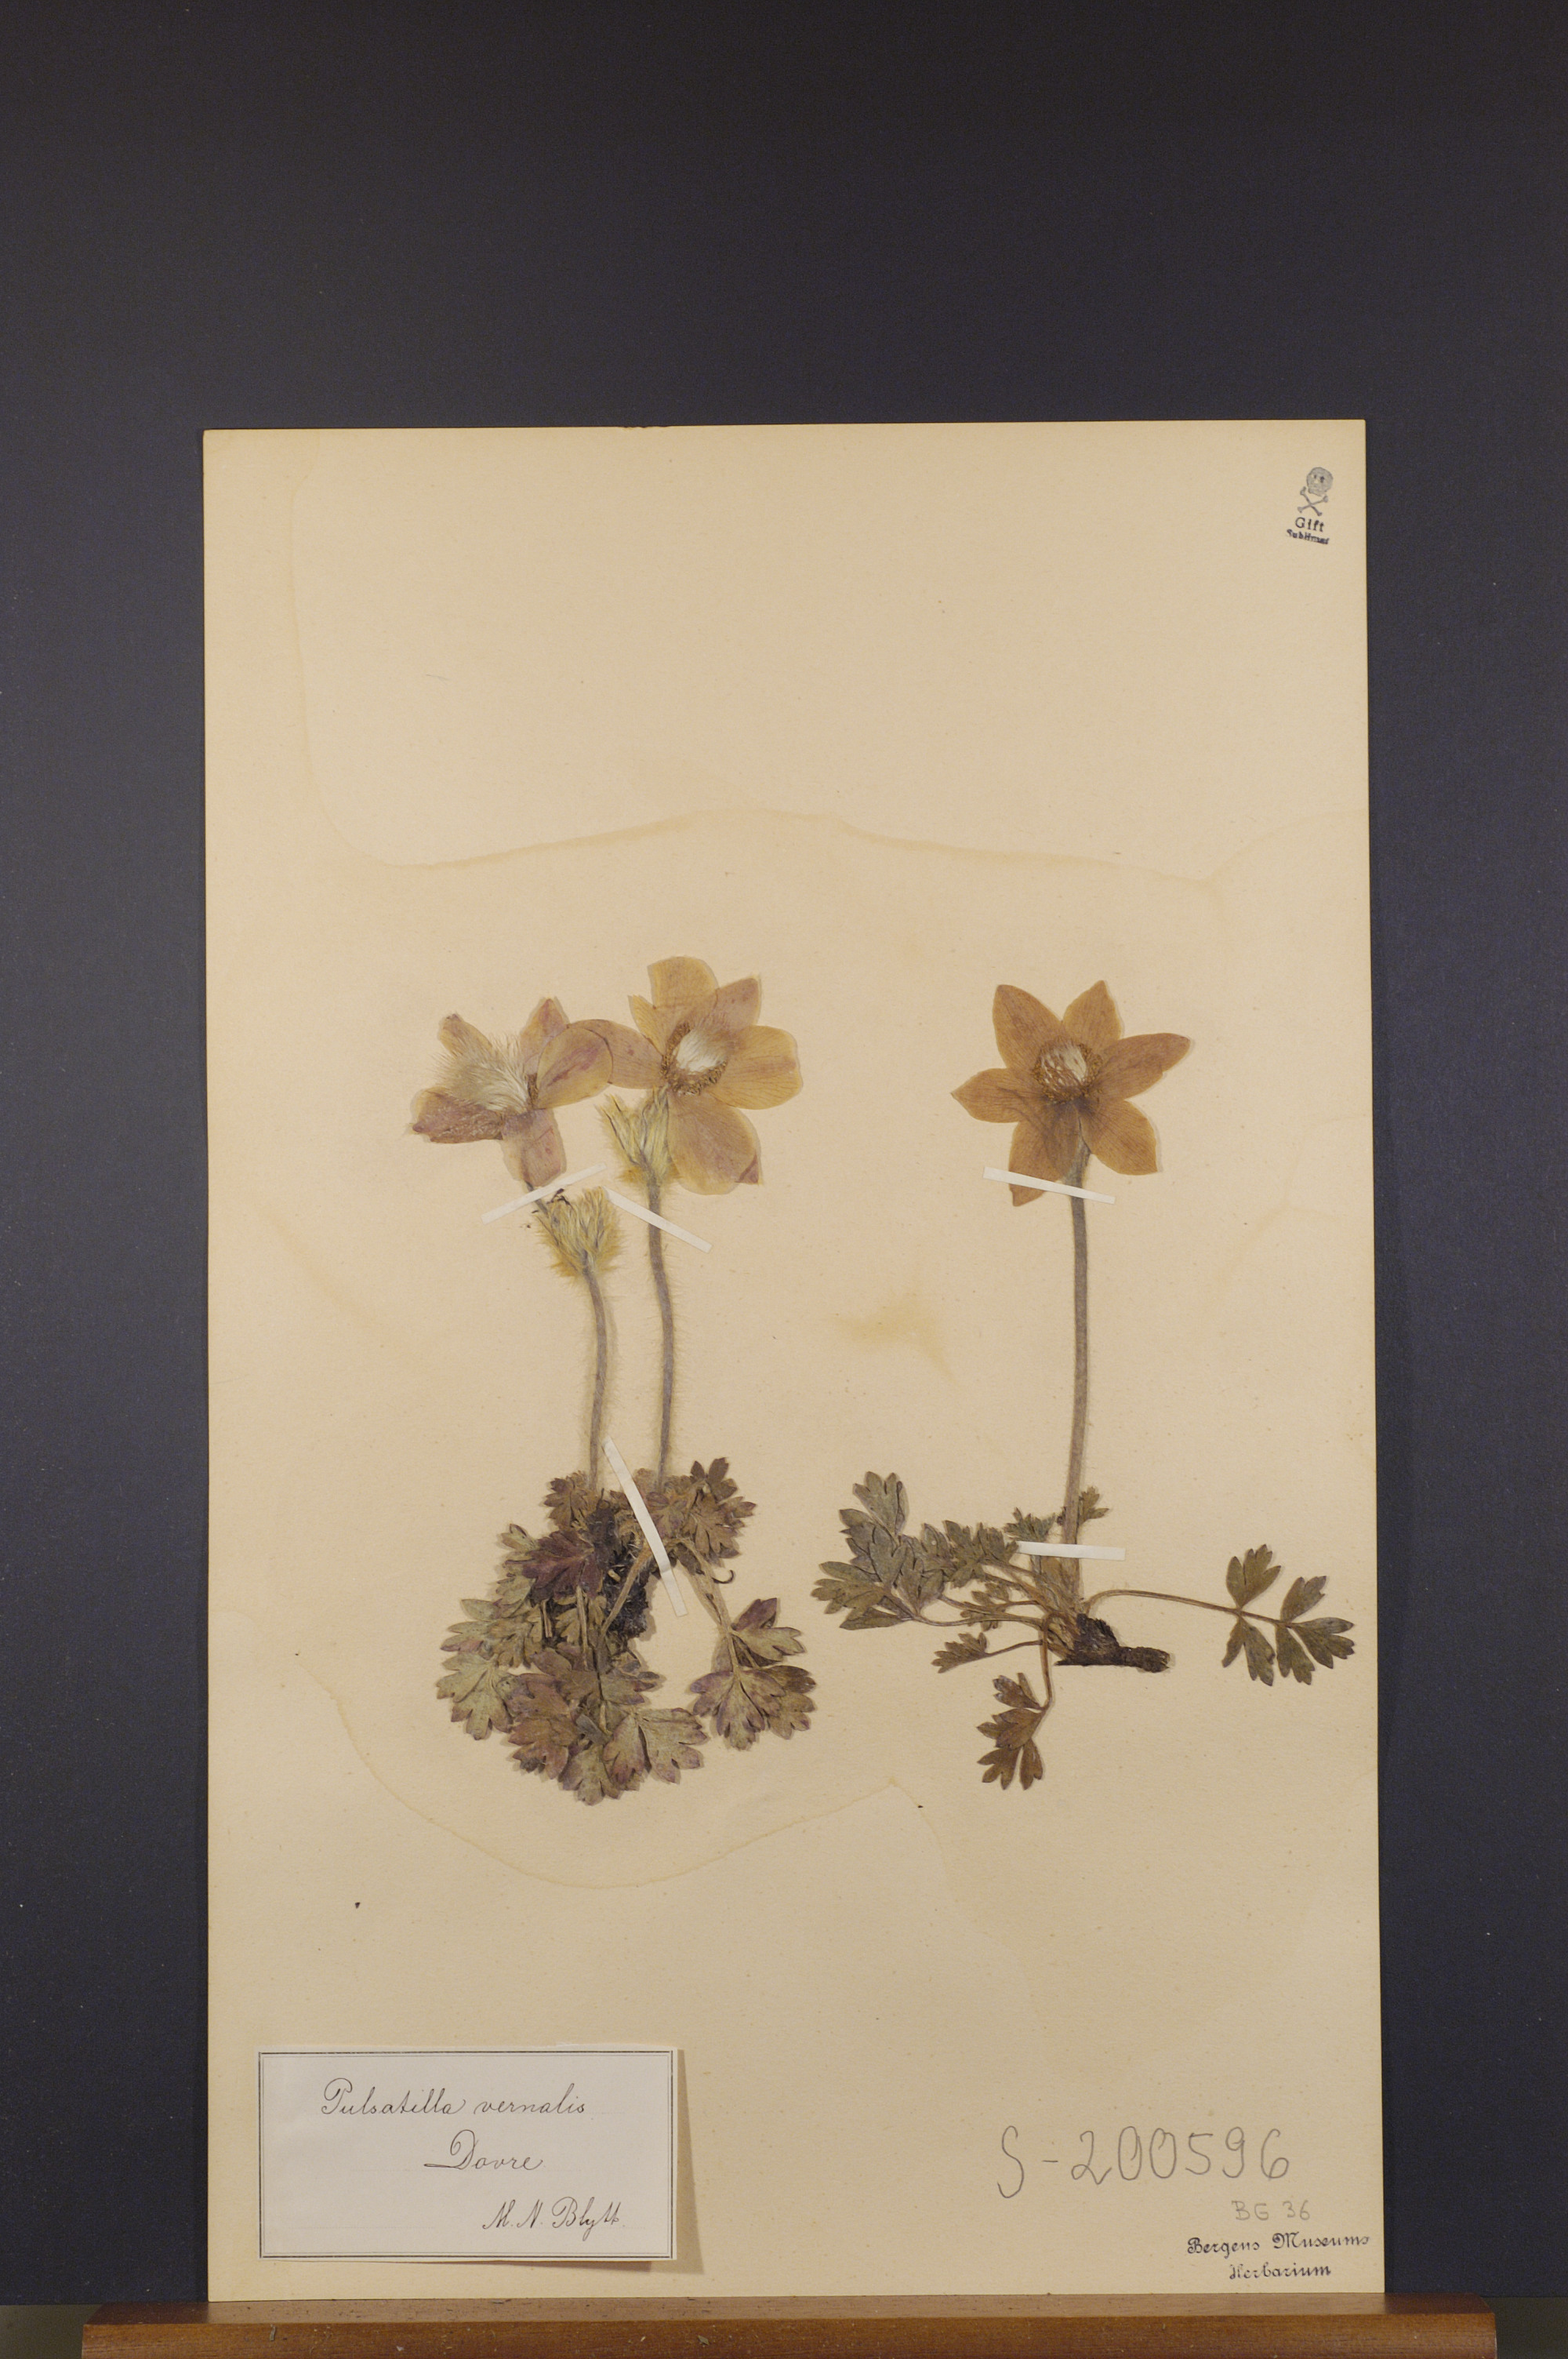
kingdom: Plantae
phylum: Tracheophyta
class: Magnoliopsida
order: Ranunculales
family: Ranunculaceae
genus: Pulsatilla
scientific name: Pulsatilla vernalis
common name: Spring pasque flower
